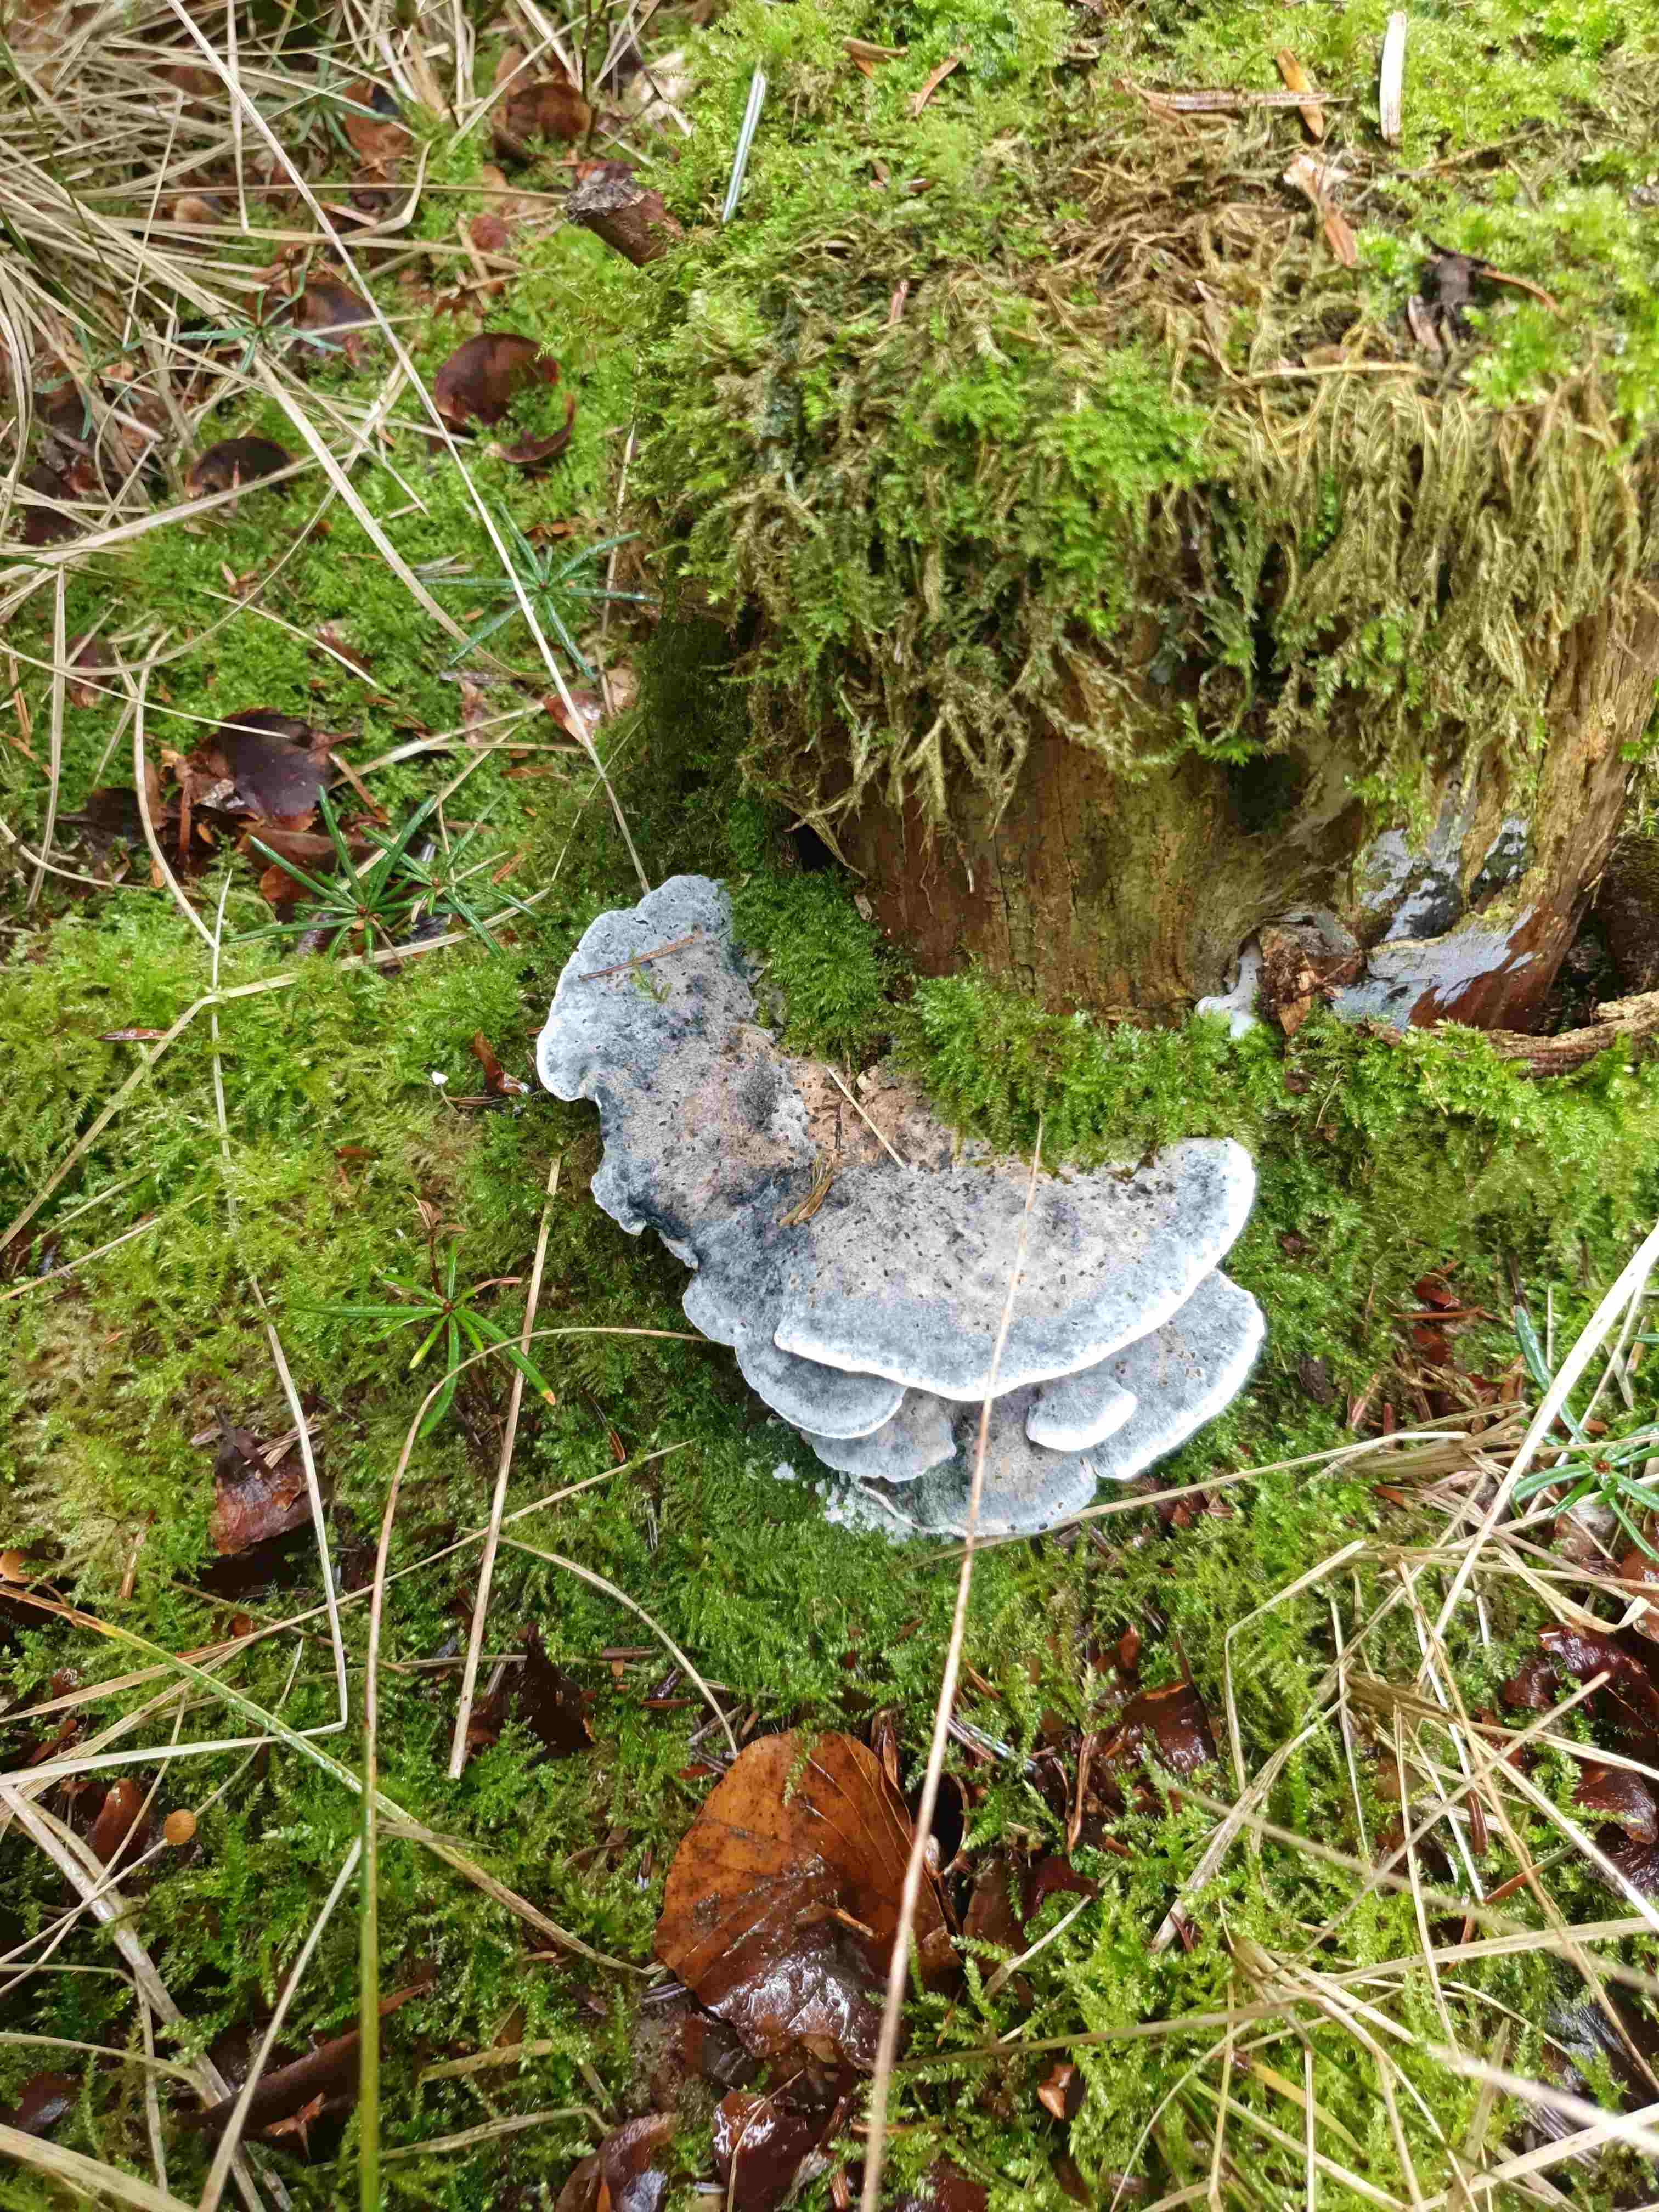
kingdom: Fungi
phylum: Basidiomycota
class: Agaricomycetes
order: Polyporales
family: Polyporaceae
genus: Cyanosporus
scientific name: Cyanosporus caesius
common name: blålig kødporesvamp
